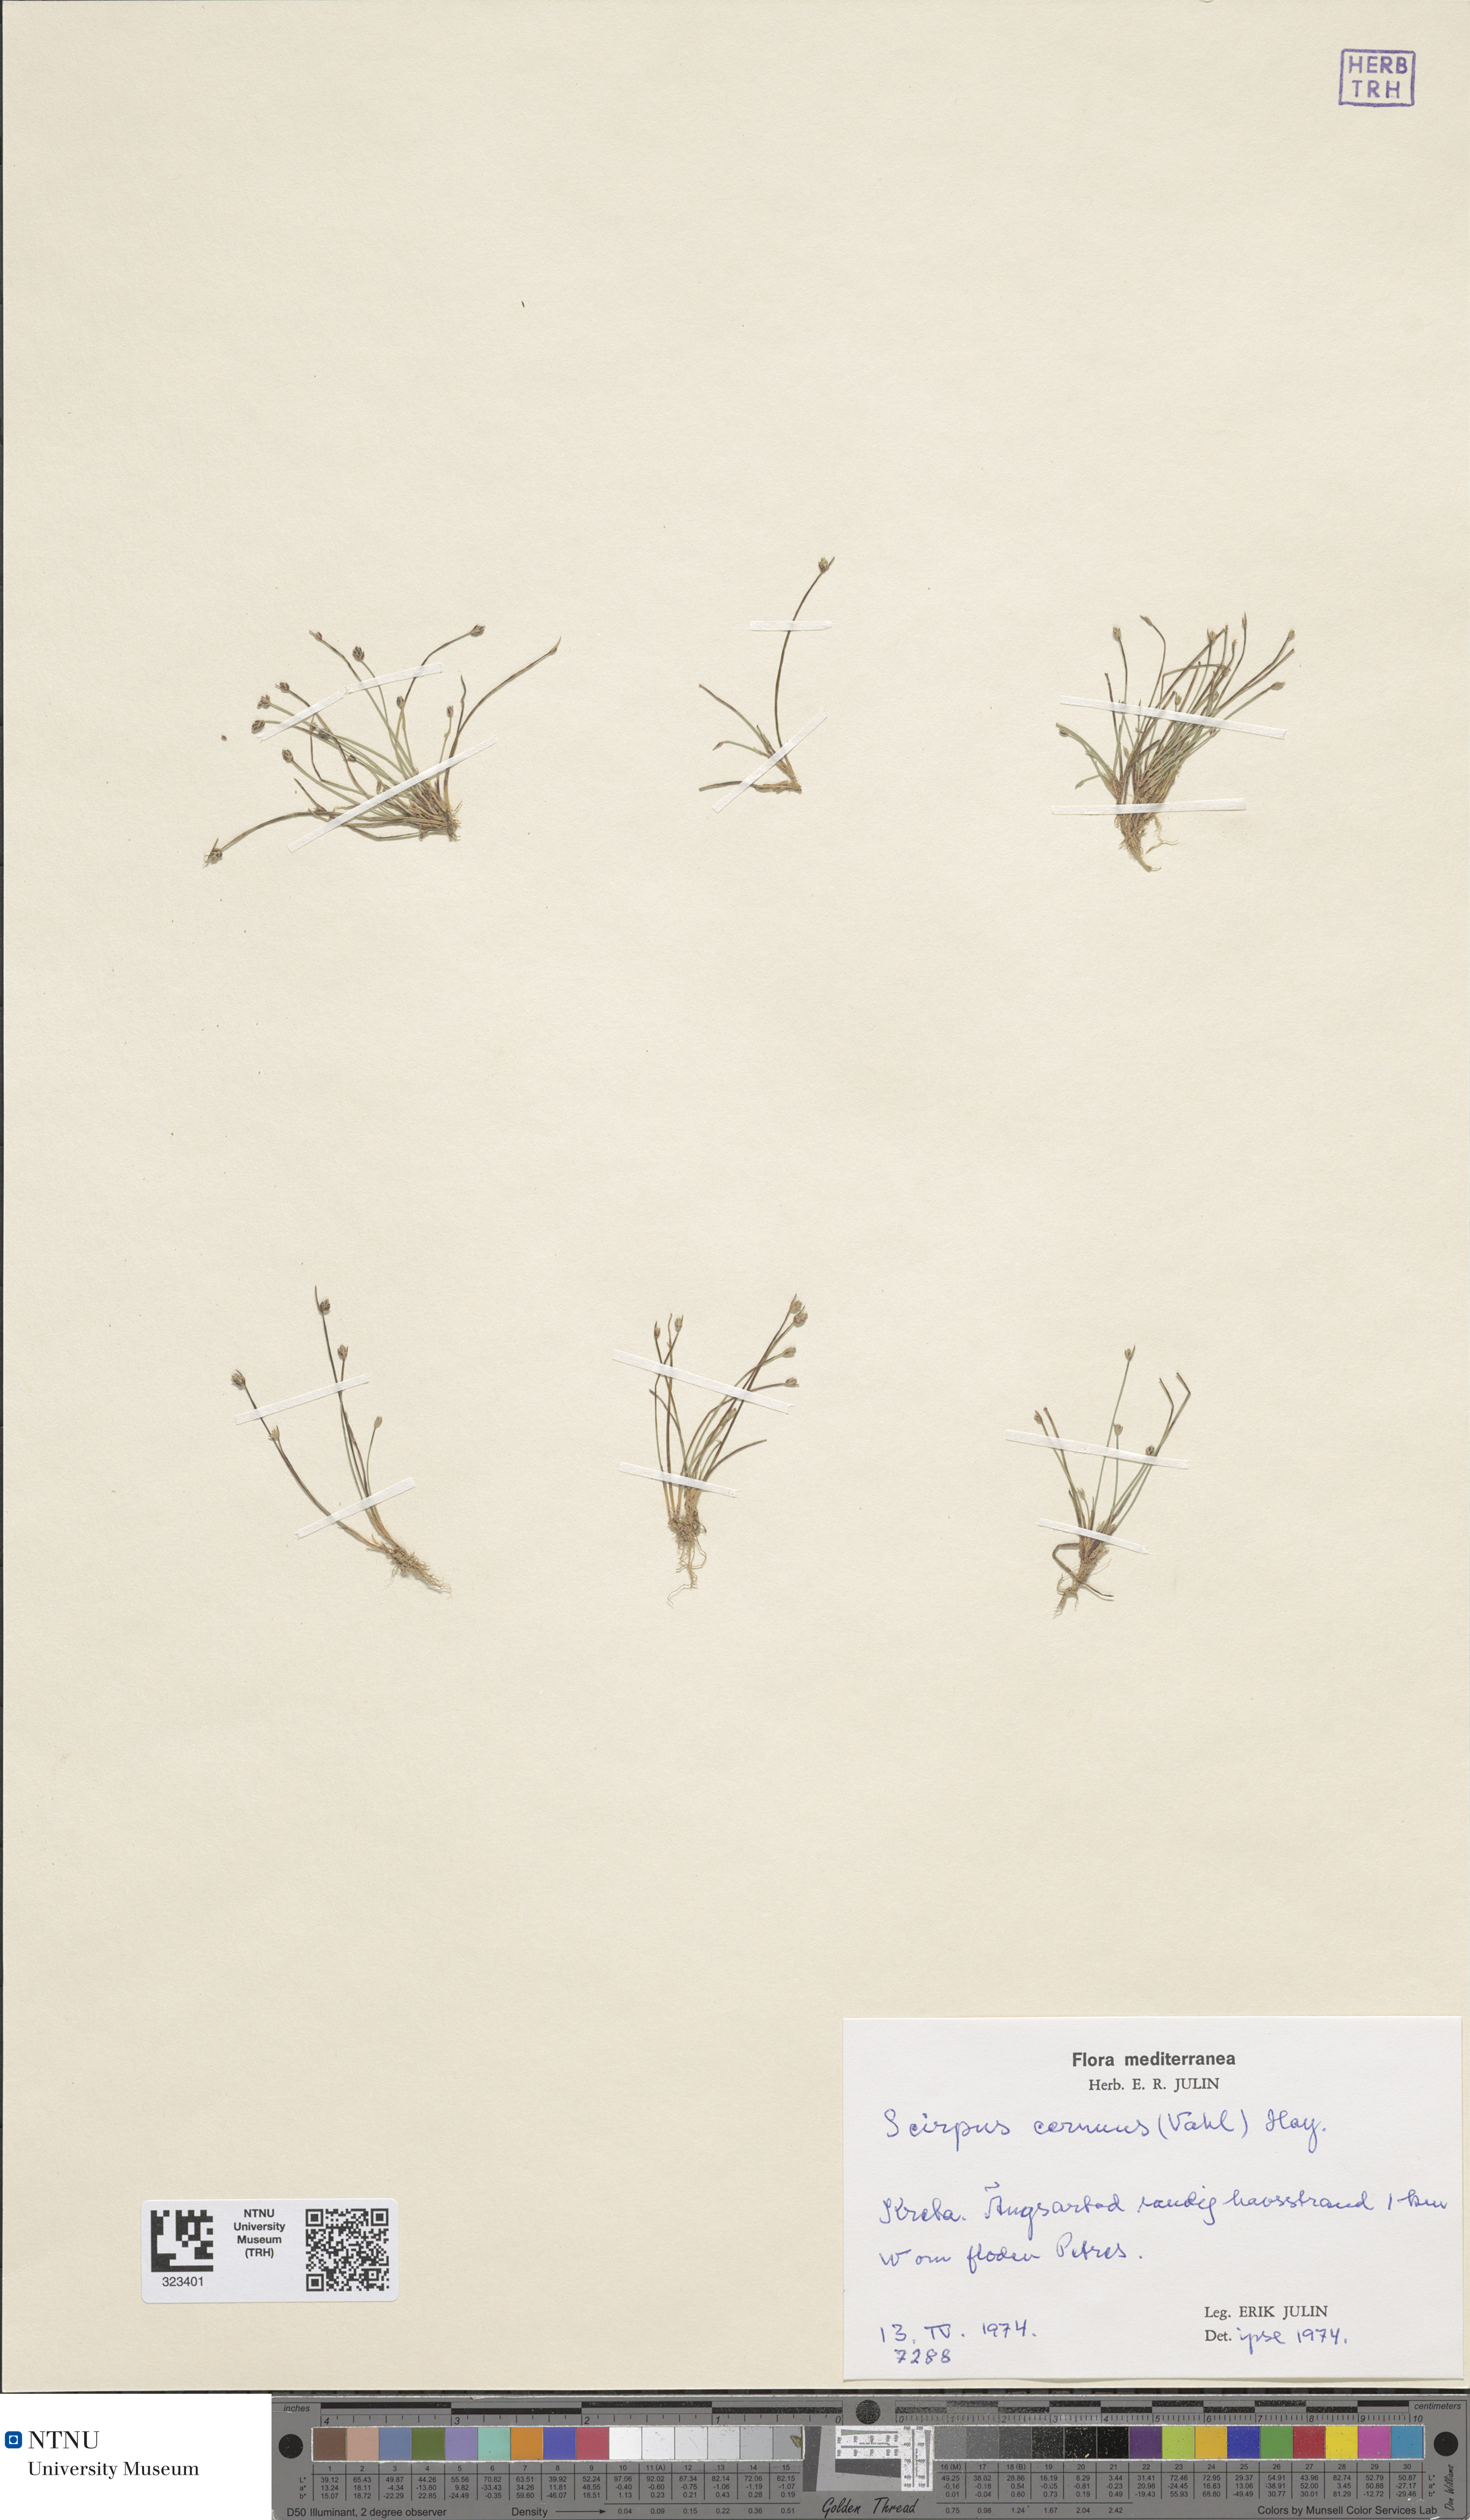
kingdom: Plantae
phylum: Tracheophyta
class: Liliopsida
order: Poales
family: Cyperaceae
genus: Isolepis
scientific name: Isolepis cernua
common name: Slender club-rush
